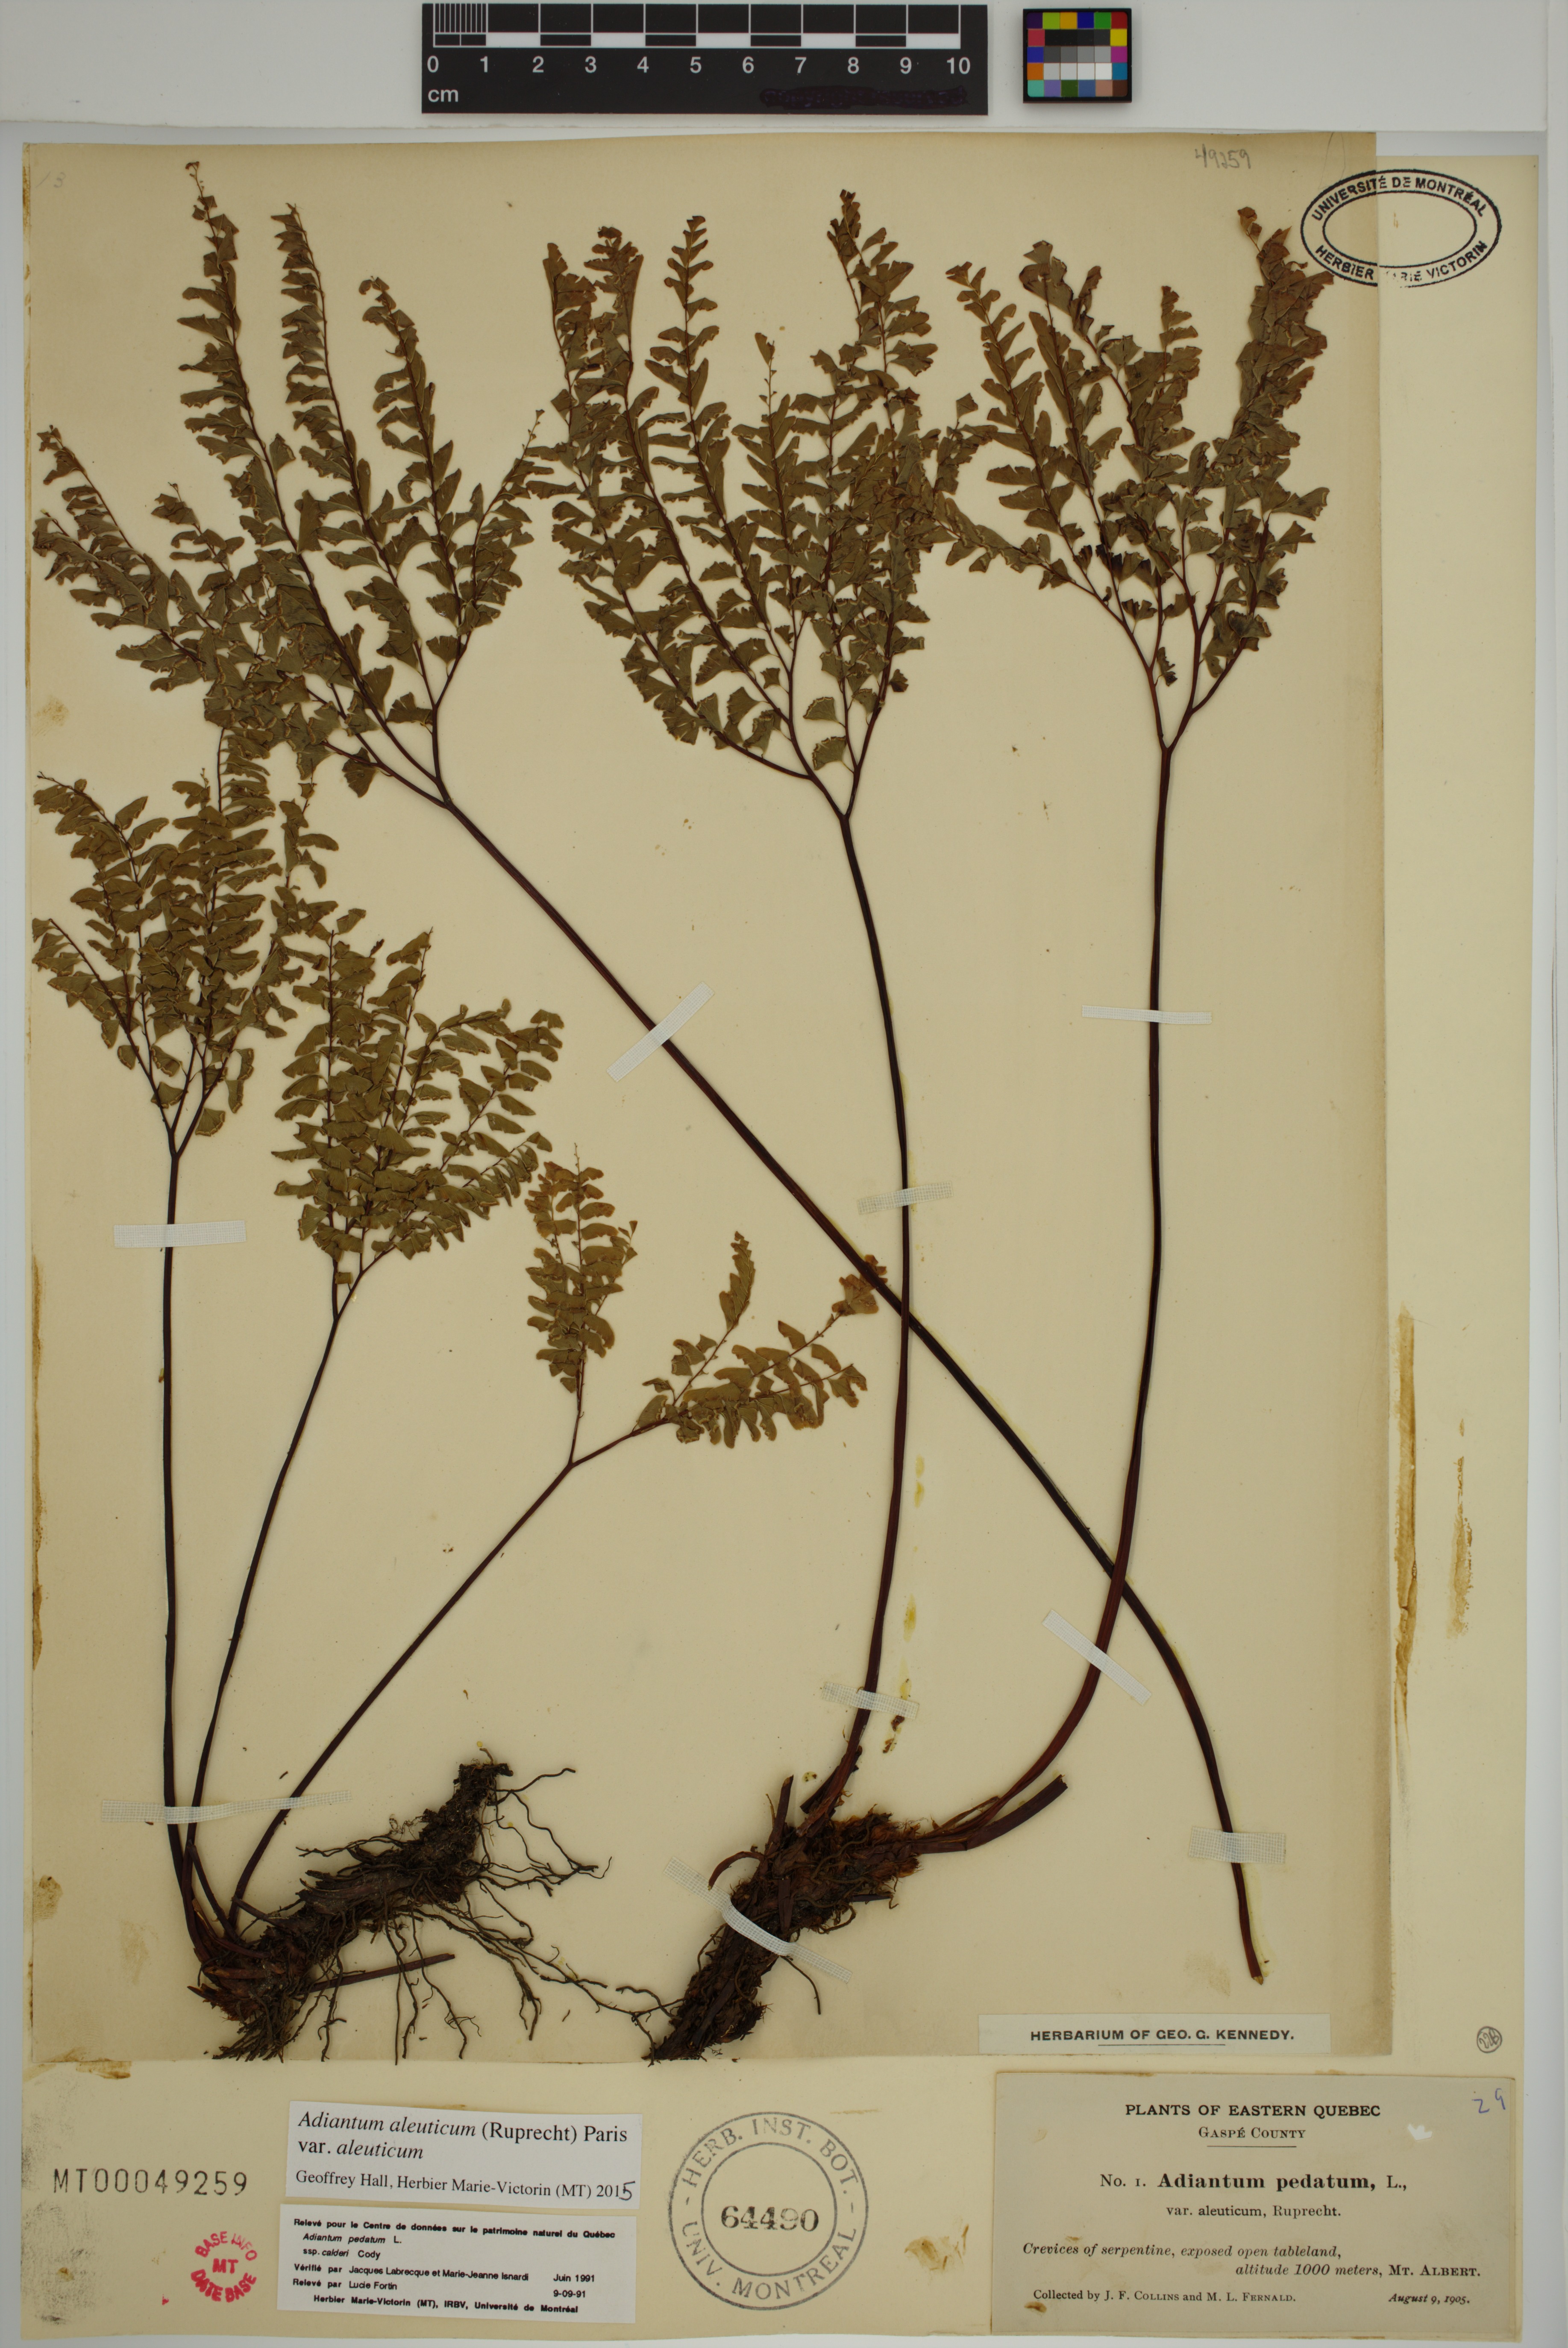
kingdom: Plantae
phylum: Tracheophyta
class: Polypodiopsida
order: Polypodiales
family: Pteridaceae
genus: Adiantum
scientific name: Adiantum aleuticum
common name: Aleutian maidenhair fern
